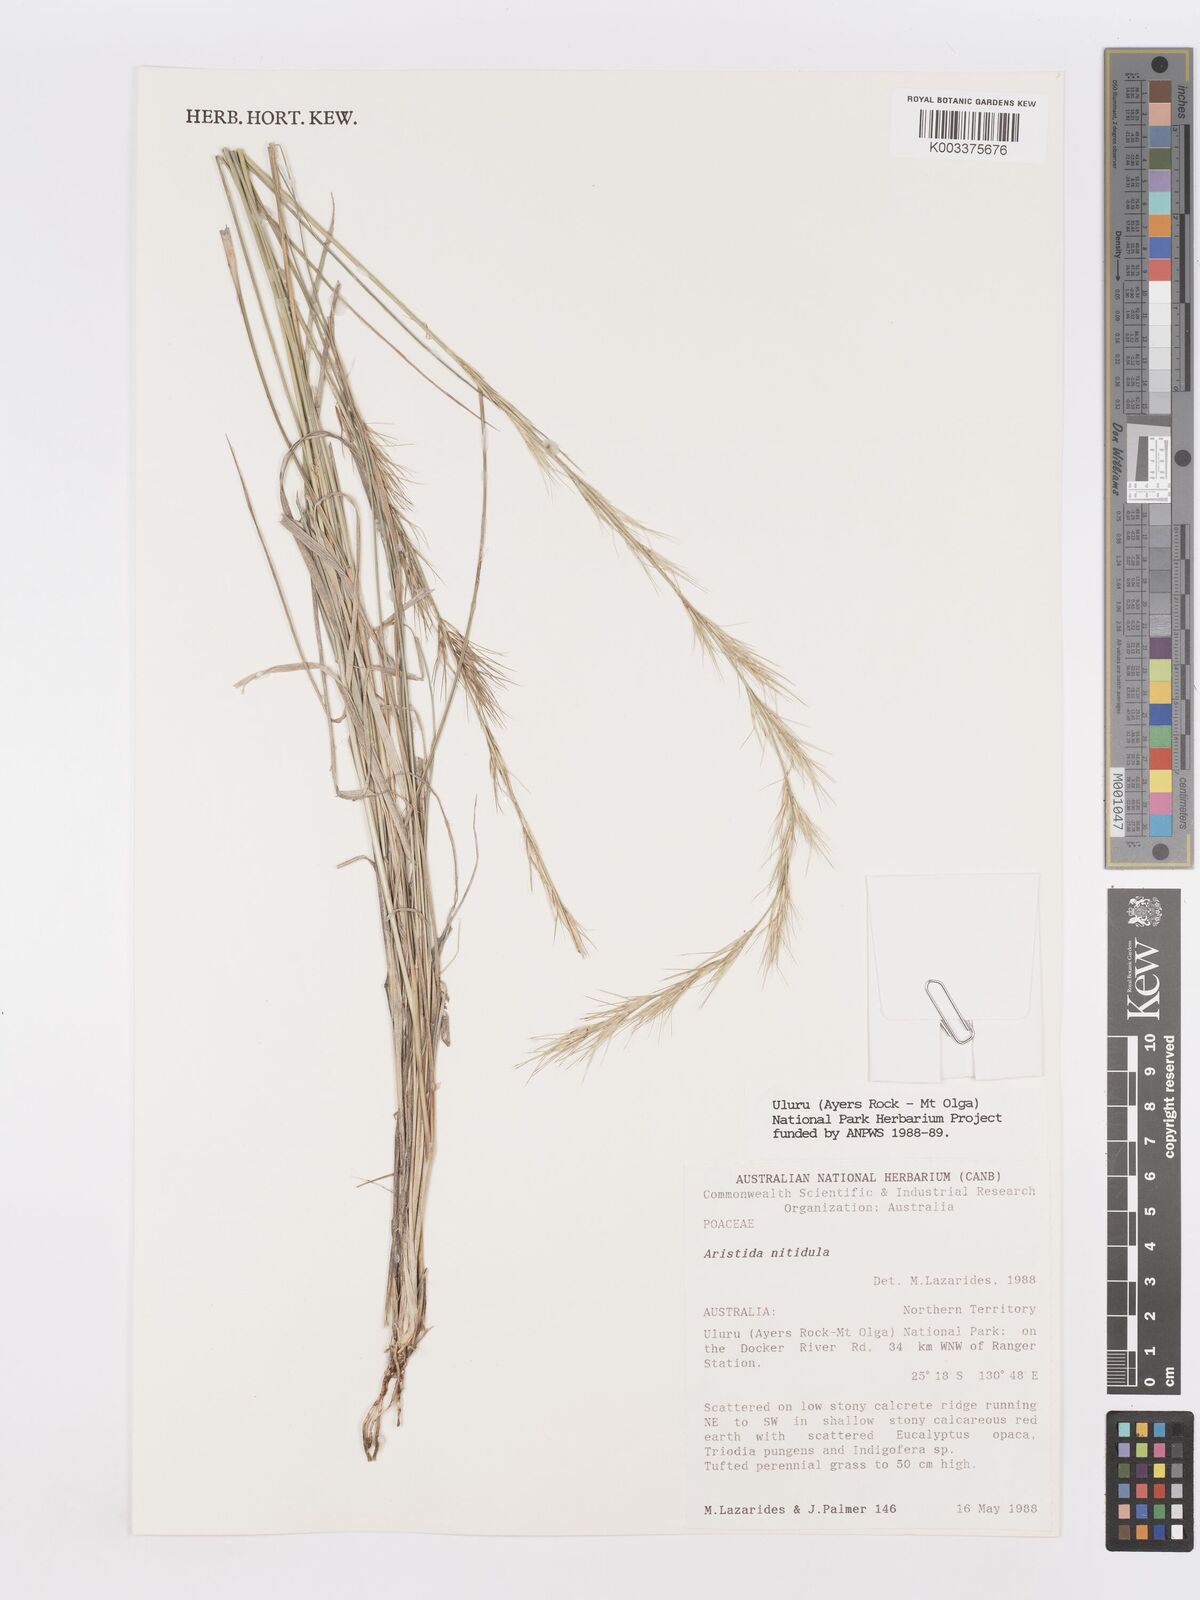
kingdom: Plantae
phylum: Tracheophyta
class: Liliopsida
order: Poales
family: Poaceae
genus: Aristida
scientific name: Aristida nitidula
